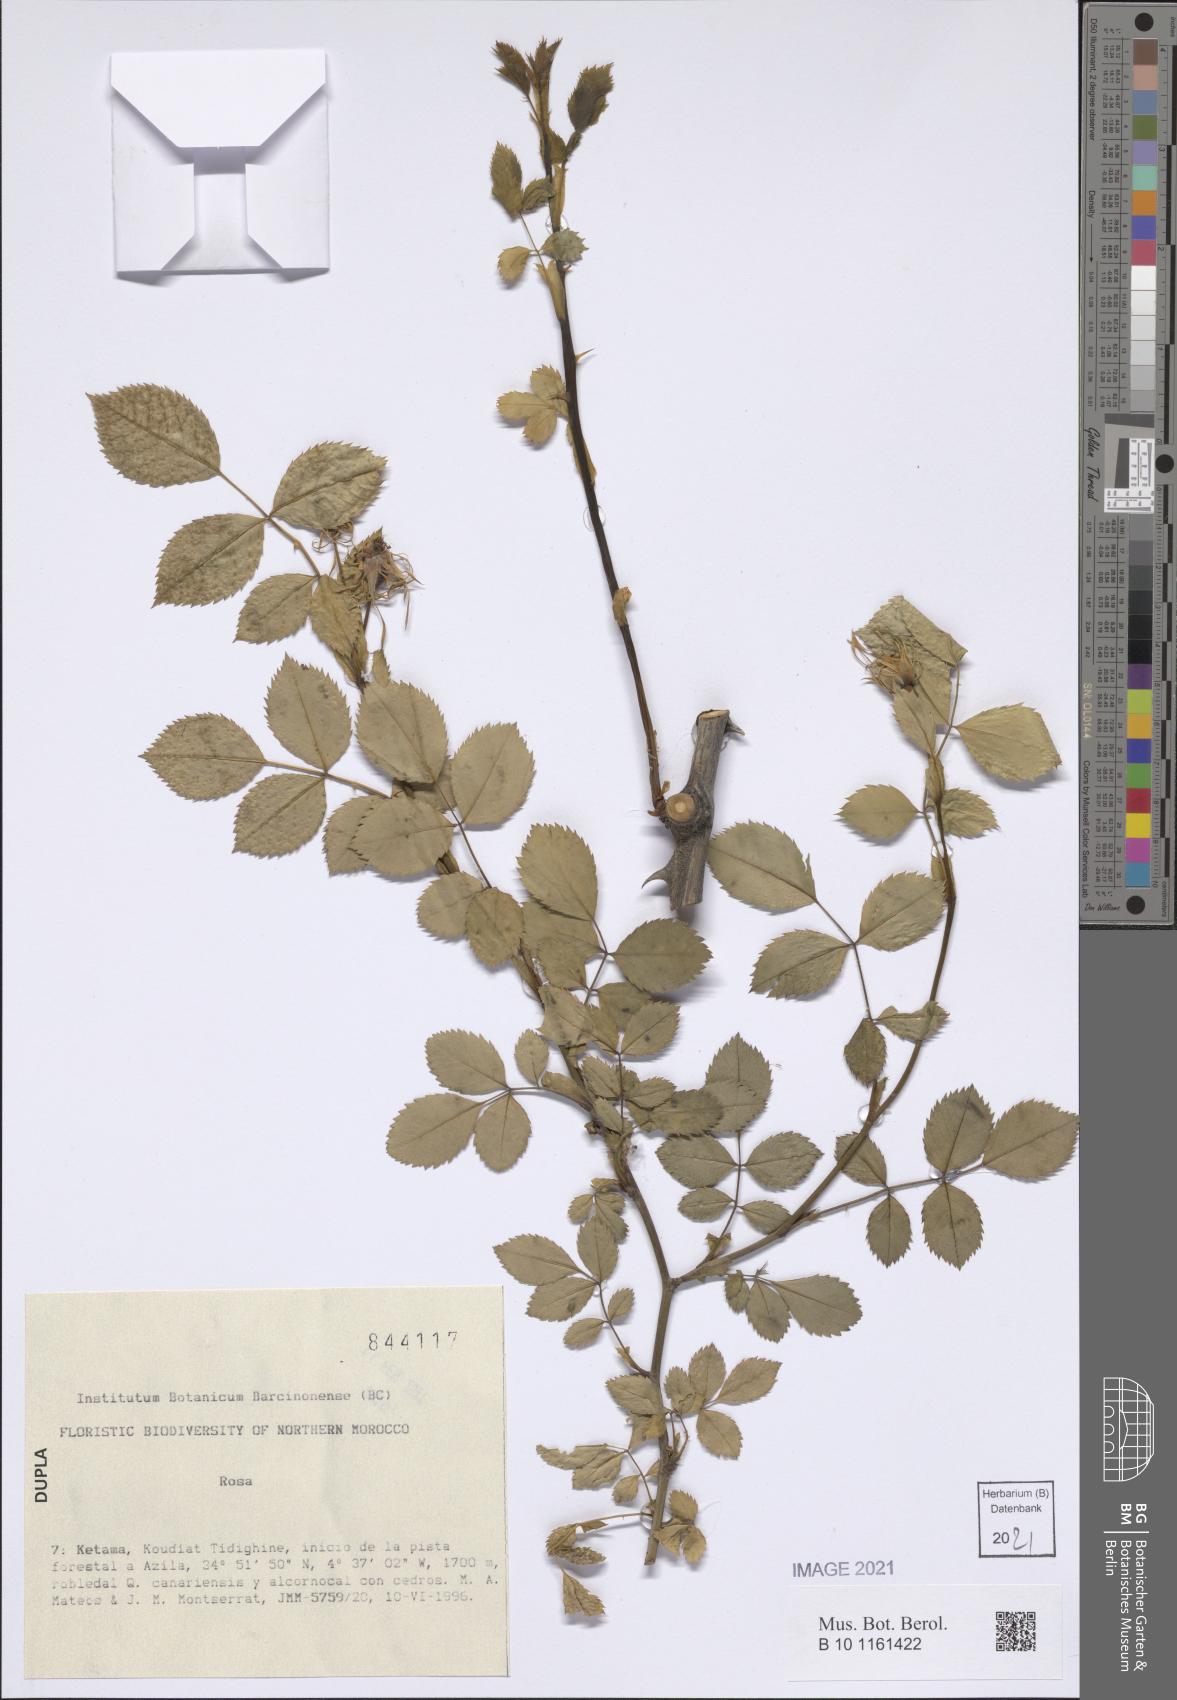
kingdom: Plantae
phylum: Tracheophyta
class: Magnoliopsida
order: Rosales
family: Rosaceae
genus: Rosa
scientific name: Rosa
